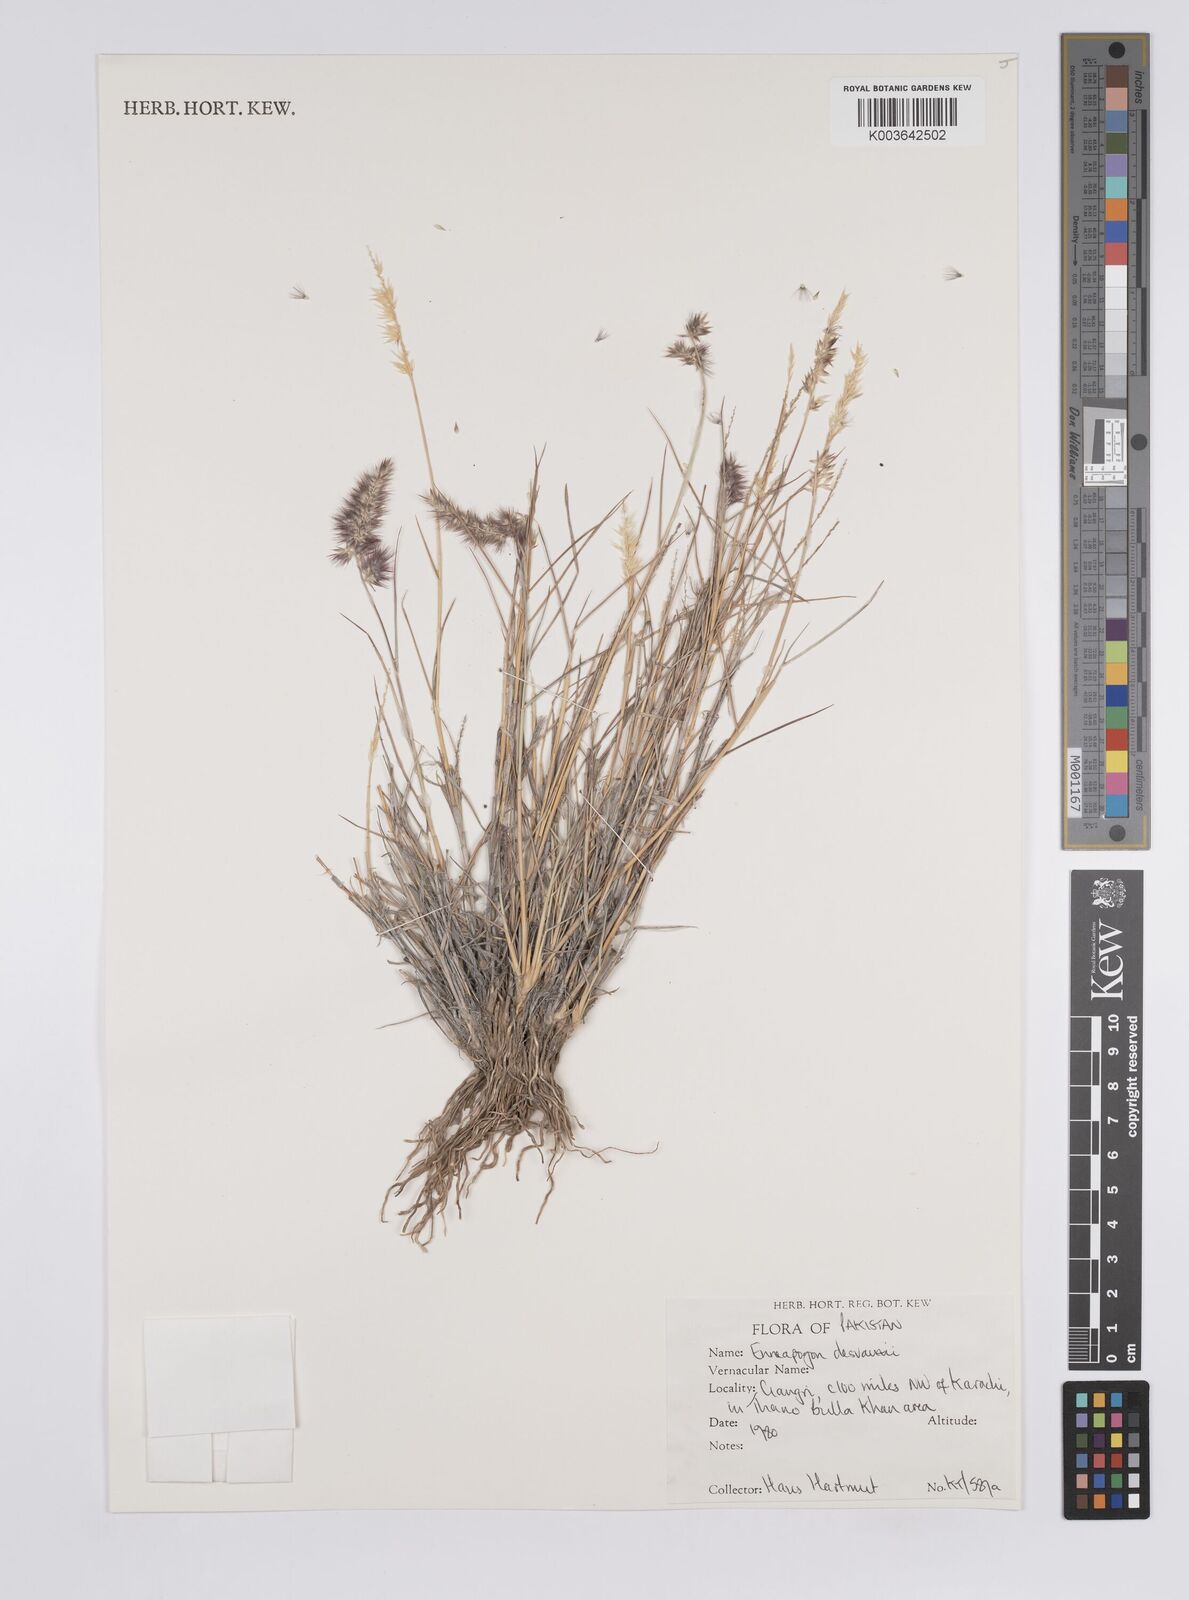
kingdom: Plantae
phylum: Tracheophyta
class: Liliopsida
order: Poales
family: Poaceae
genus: Enneapogon
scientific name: Enneapogon desvauxii
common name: Feather pappus grass
